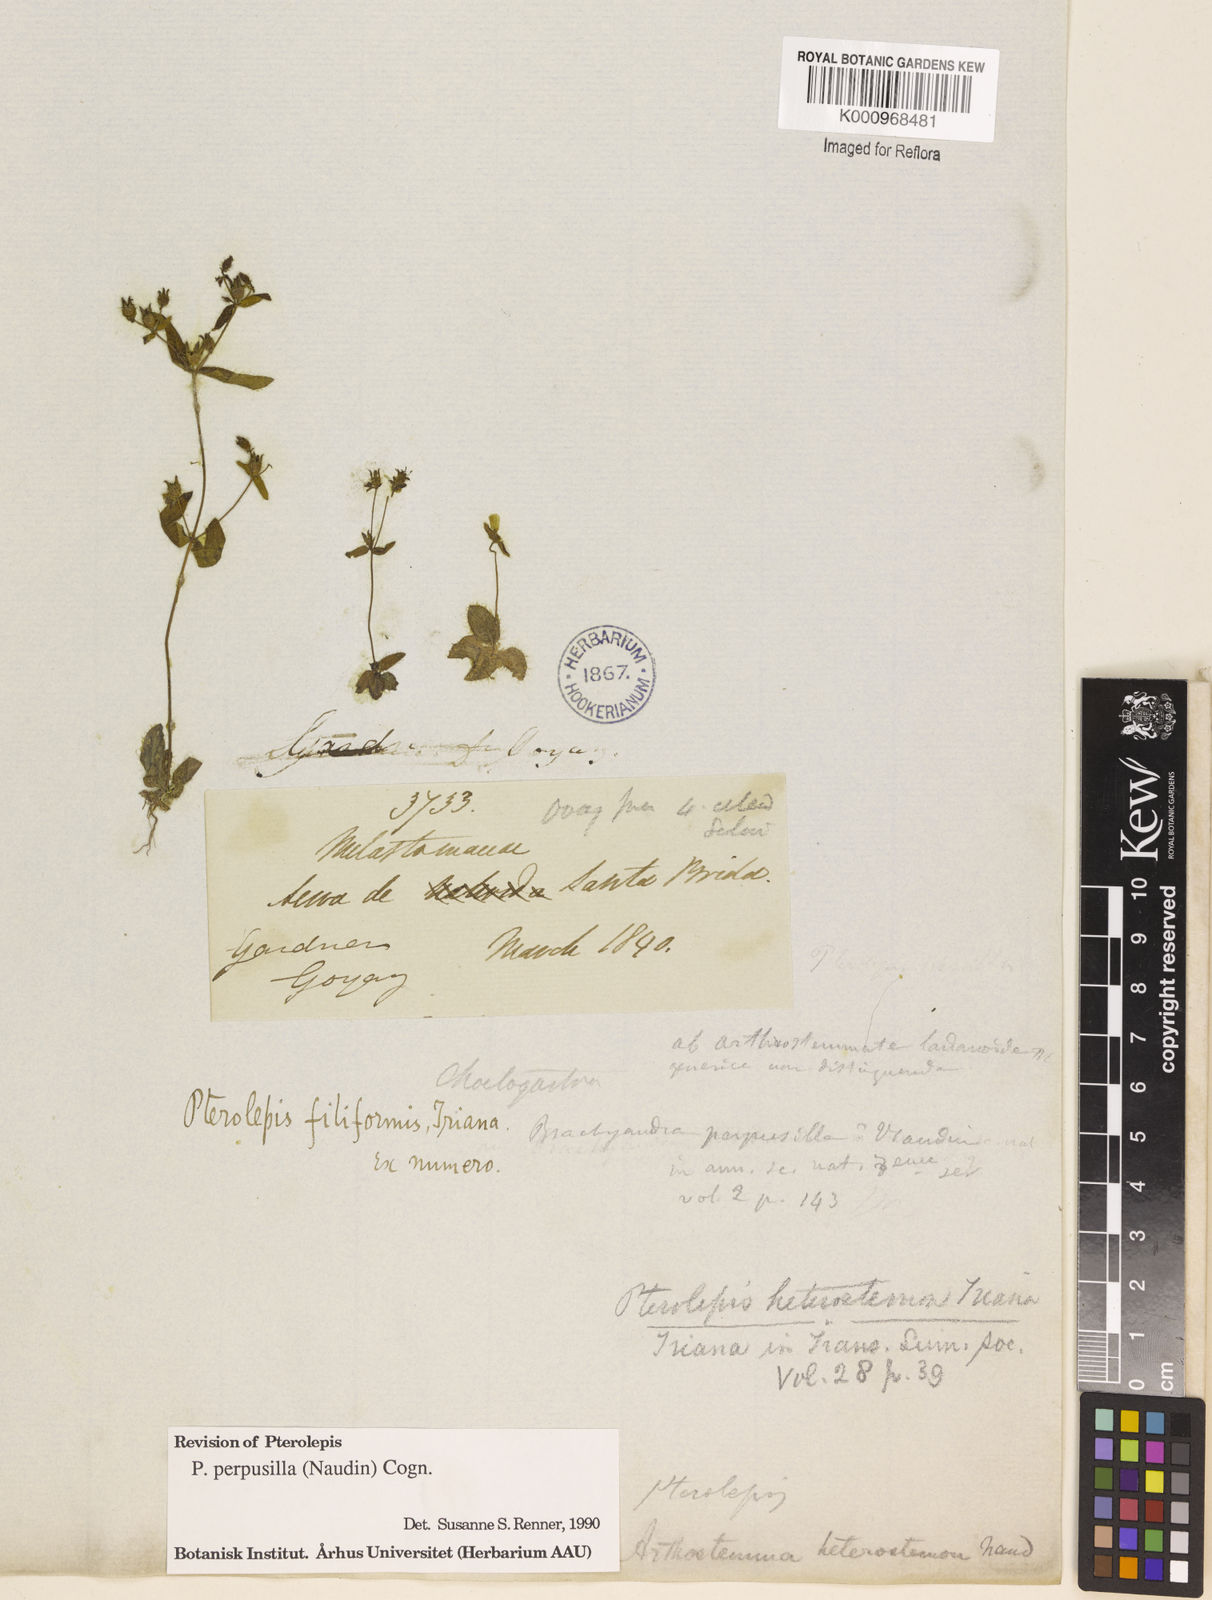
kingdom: Plantae
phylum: Tracheophyta
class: Magnoliopsida
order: Myrtales
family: Melastomataceae
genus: Pterolepis
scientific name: Pterolepis perpusilla
